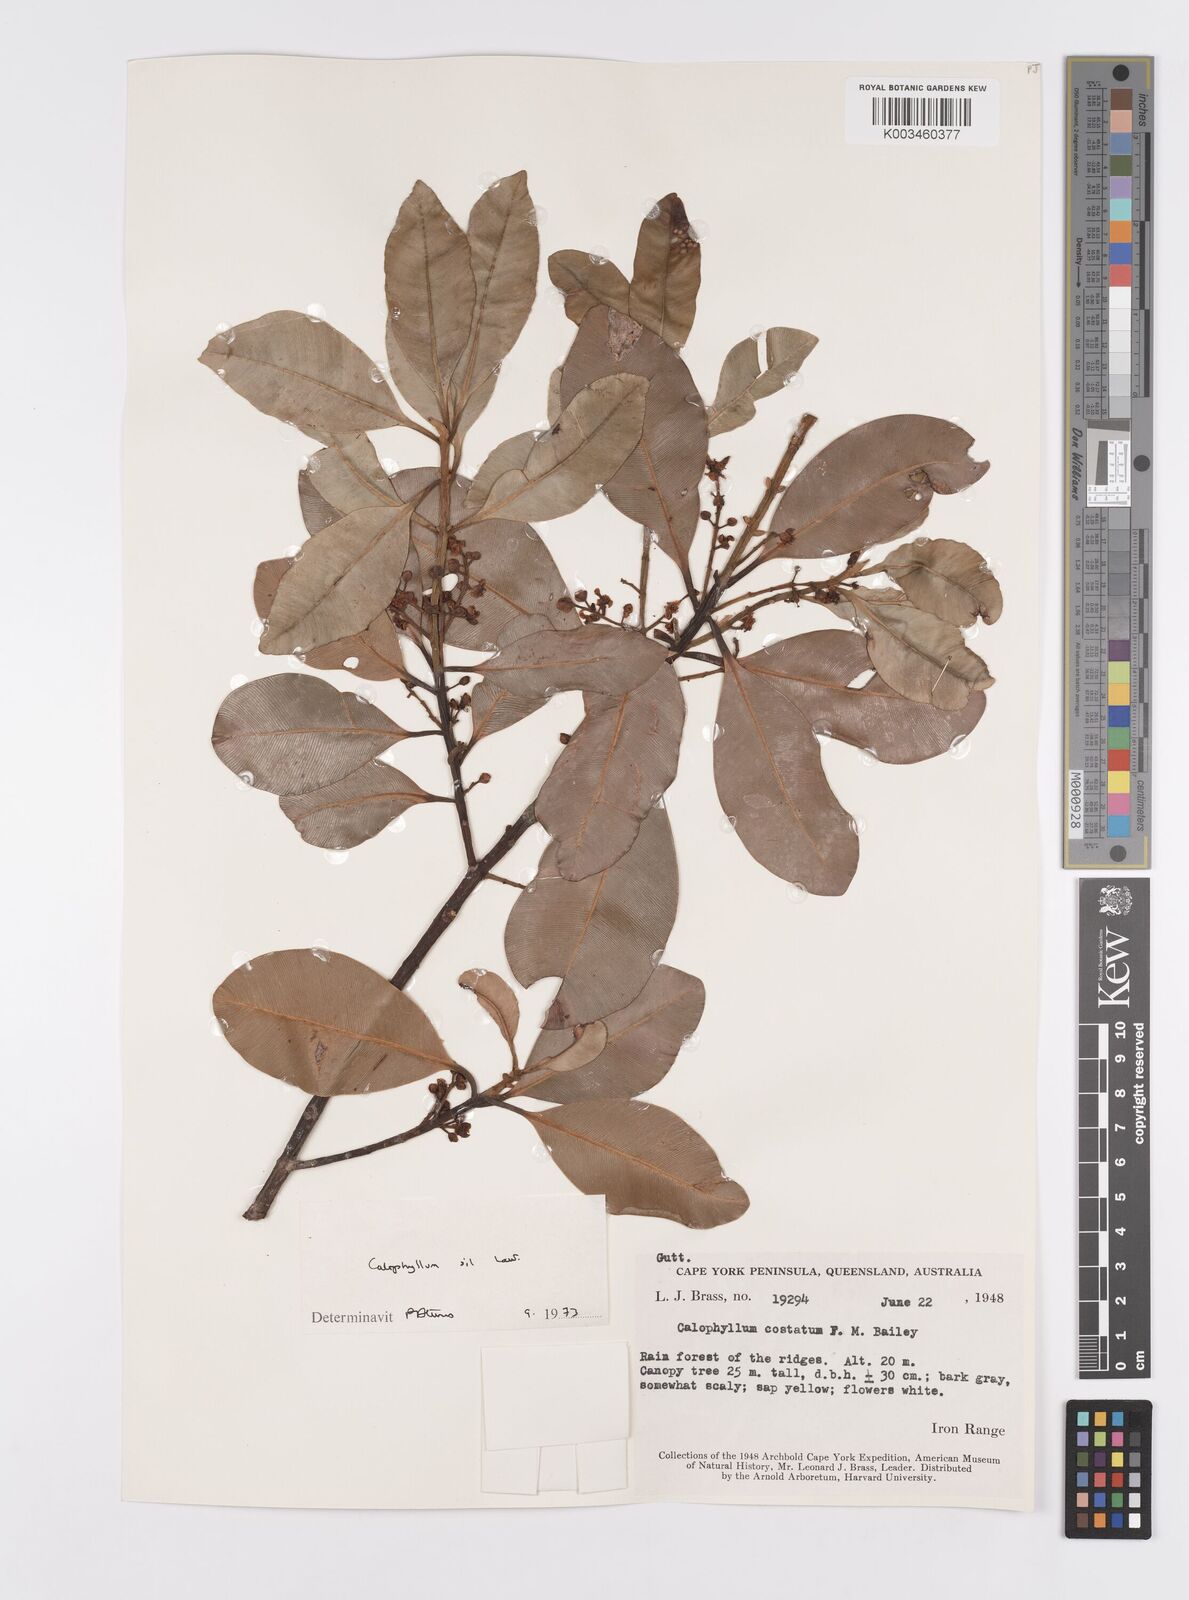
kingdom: Plantae
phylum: Tracheophyta
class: Magnoliopsida
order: Malpighiales
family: Calophyllaceae
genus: Calophyllum
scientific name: Calophyllum sil
